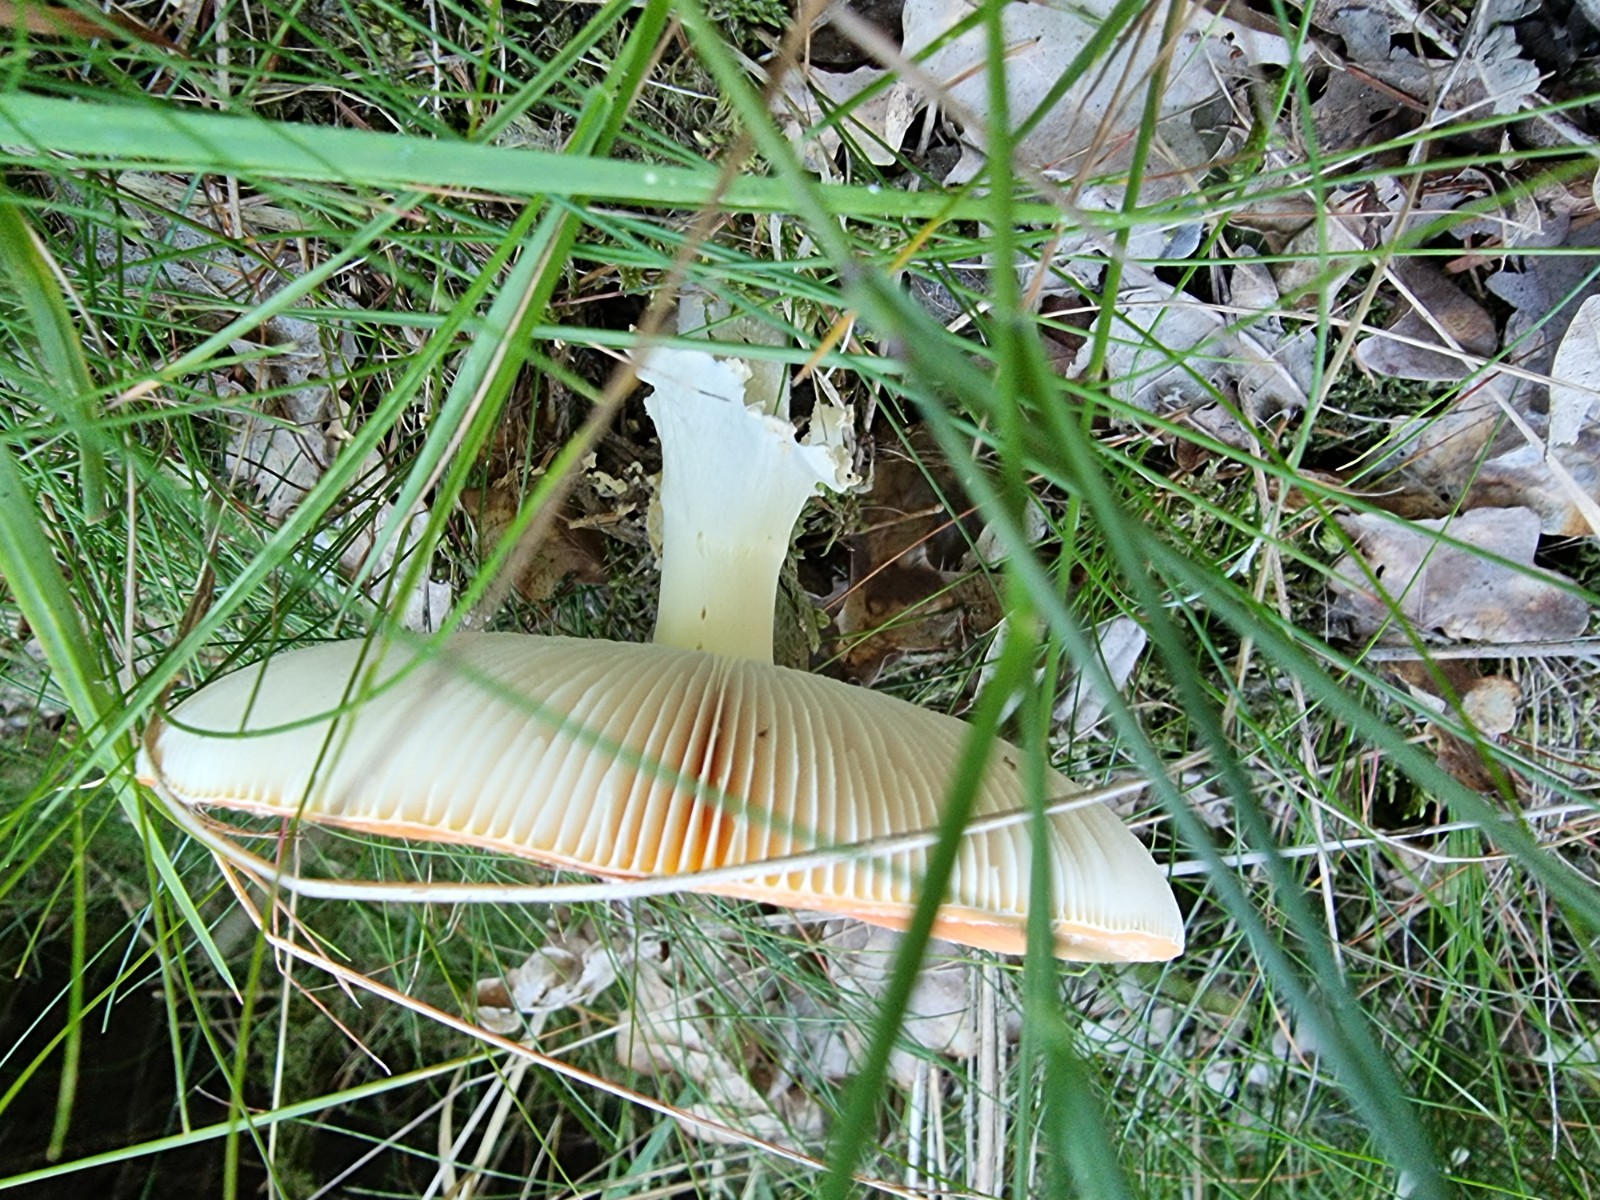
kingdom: Fungi
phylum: Basidiomycota
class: Agaricomycetes
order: Agaricales
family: Amanitaceae
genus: Amanita
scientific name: Amanita muscaria
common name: rød fluesvamp
